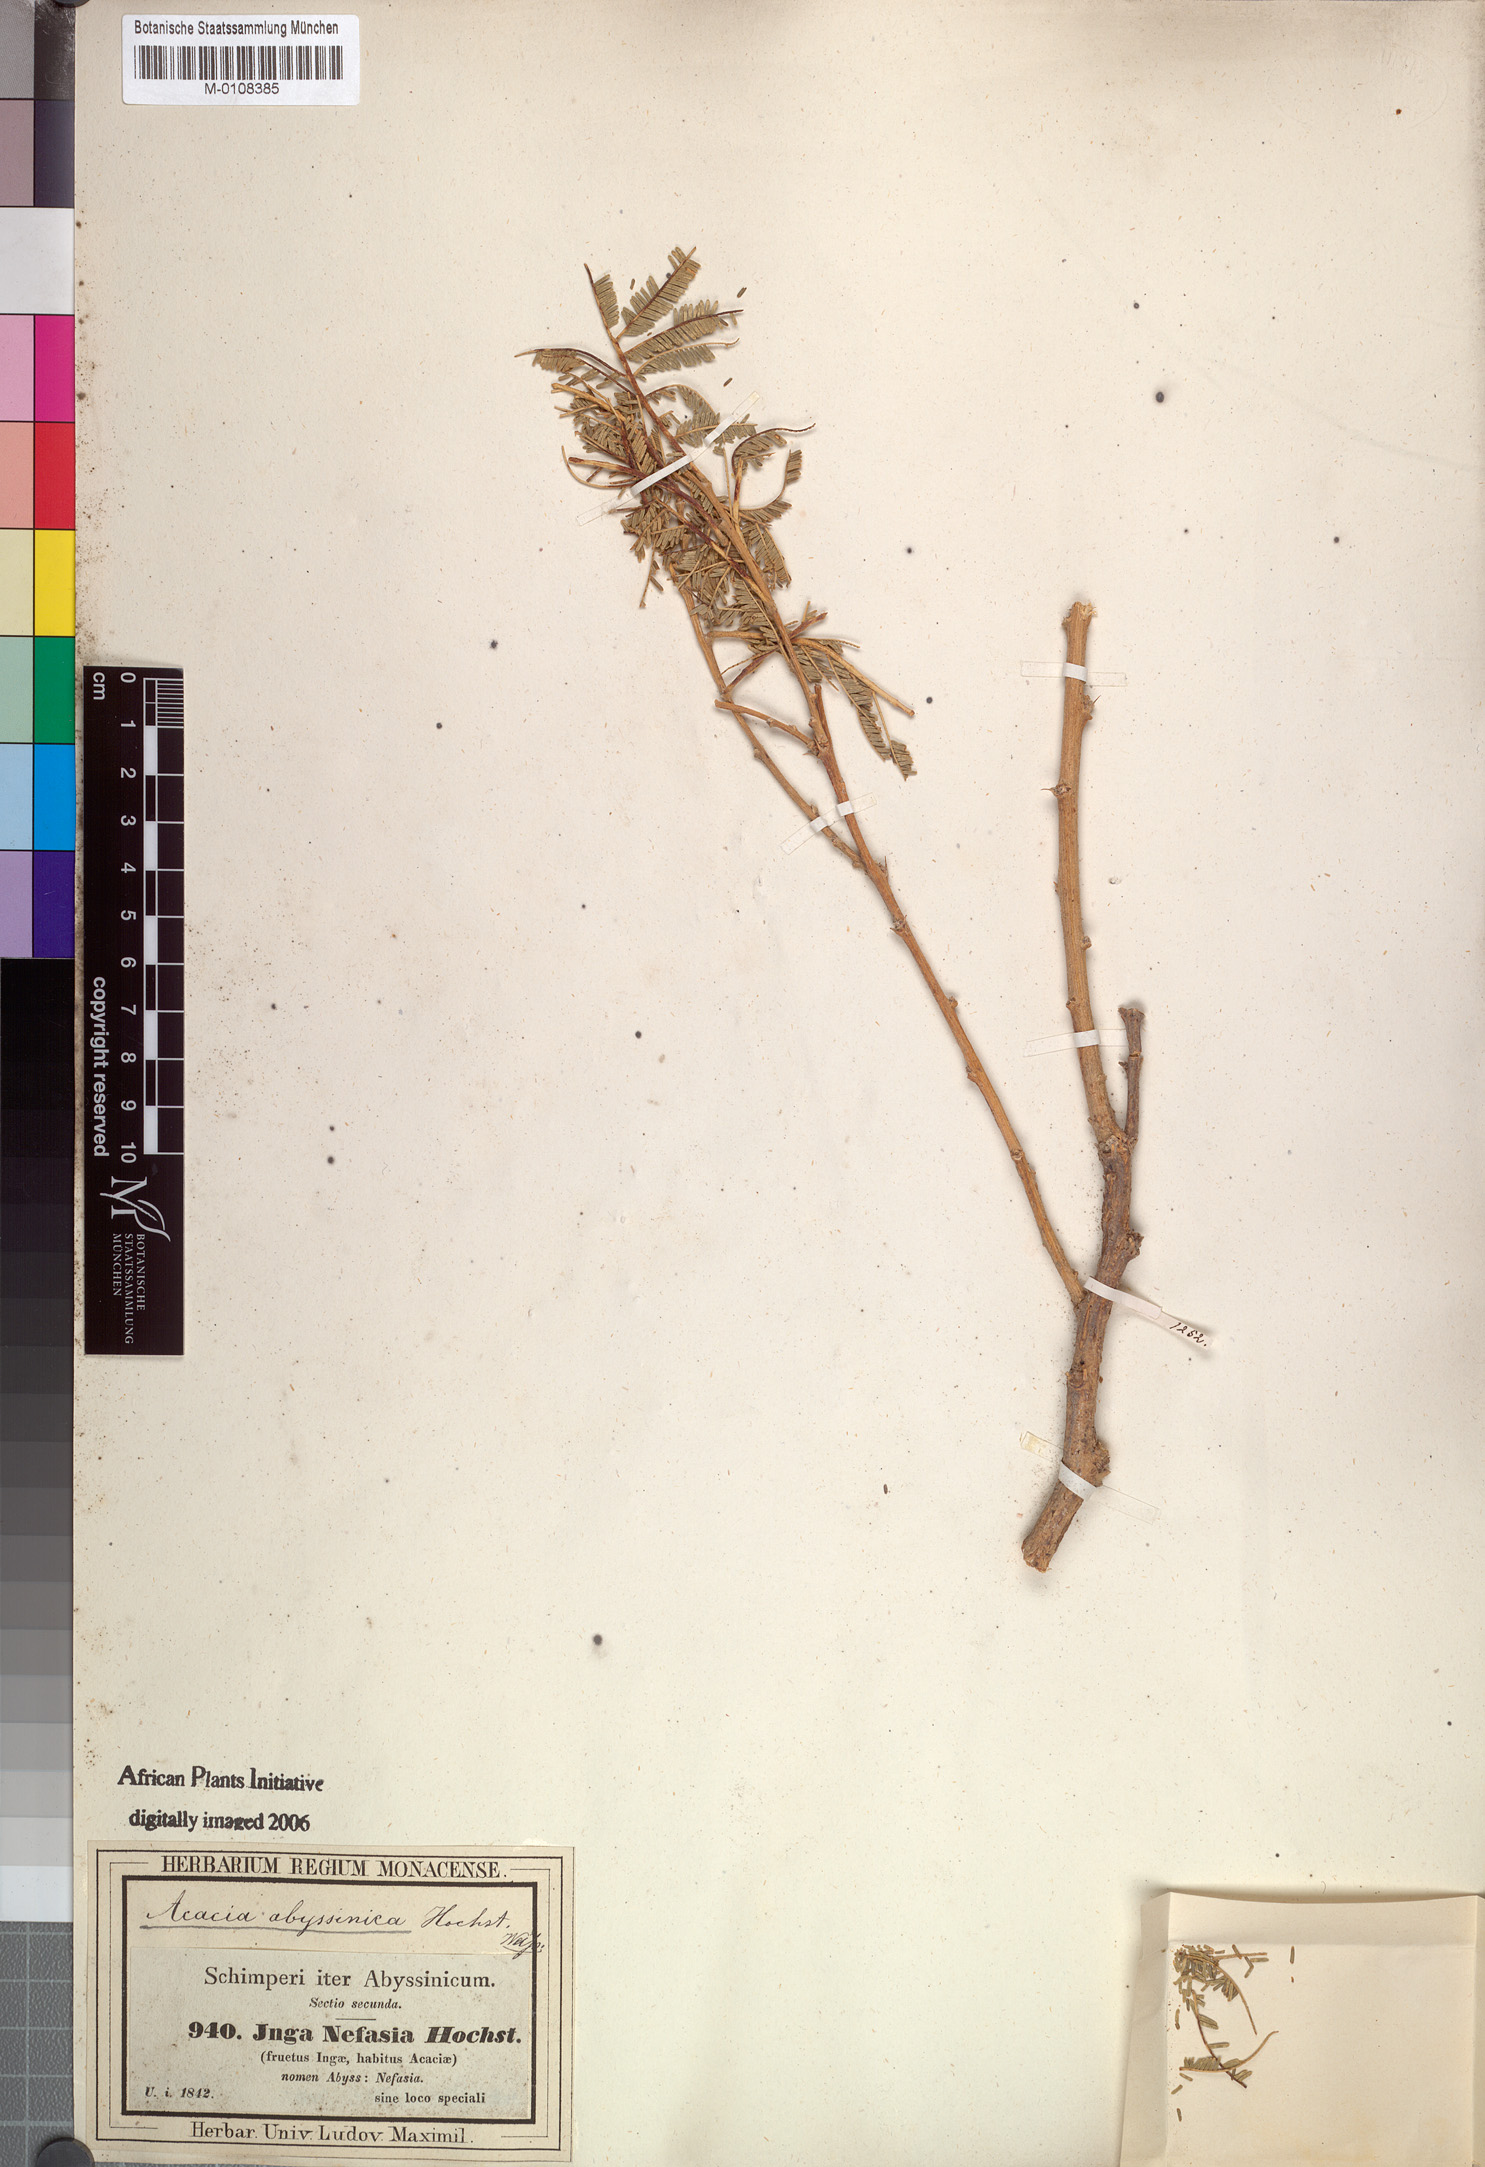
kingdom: Plantae
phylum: Tracheophyta
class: Magnoliopsida
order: Fabales
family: Fabaceae
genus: Vachellia
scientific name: Vachellia sieberiana
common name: Flat-topped thorn
